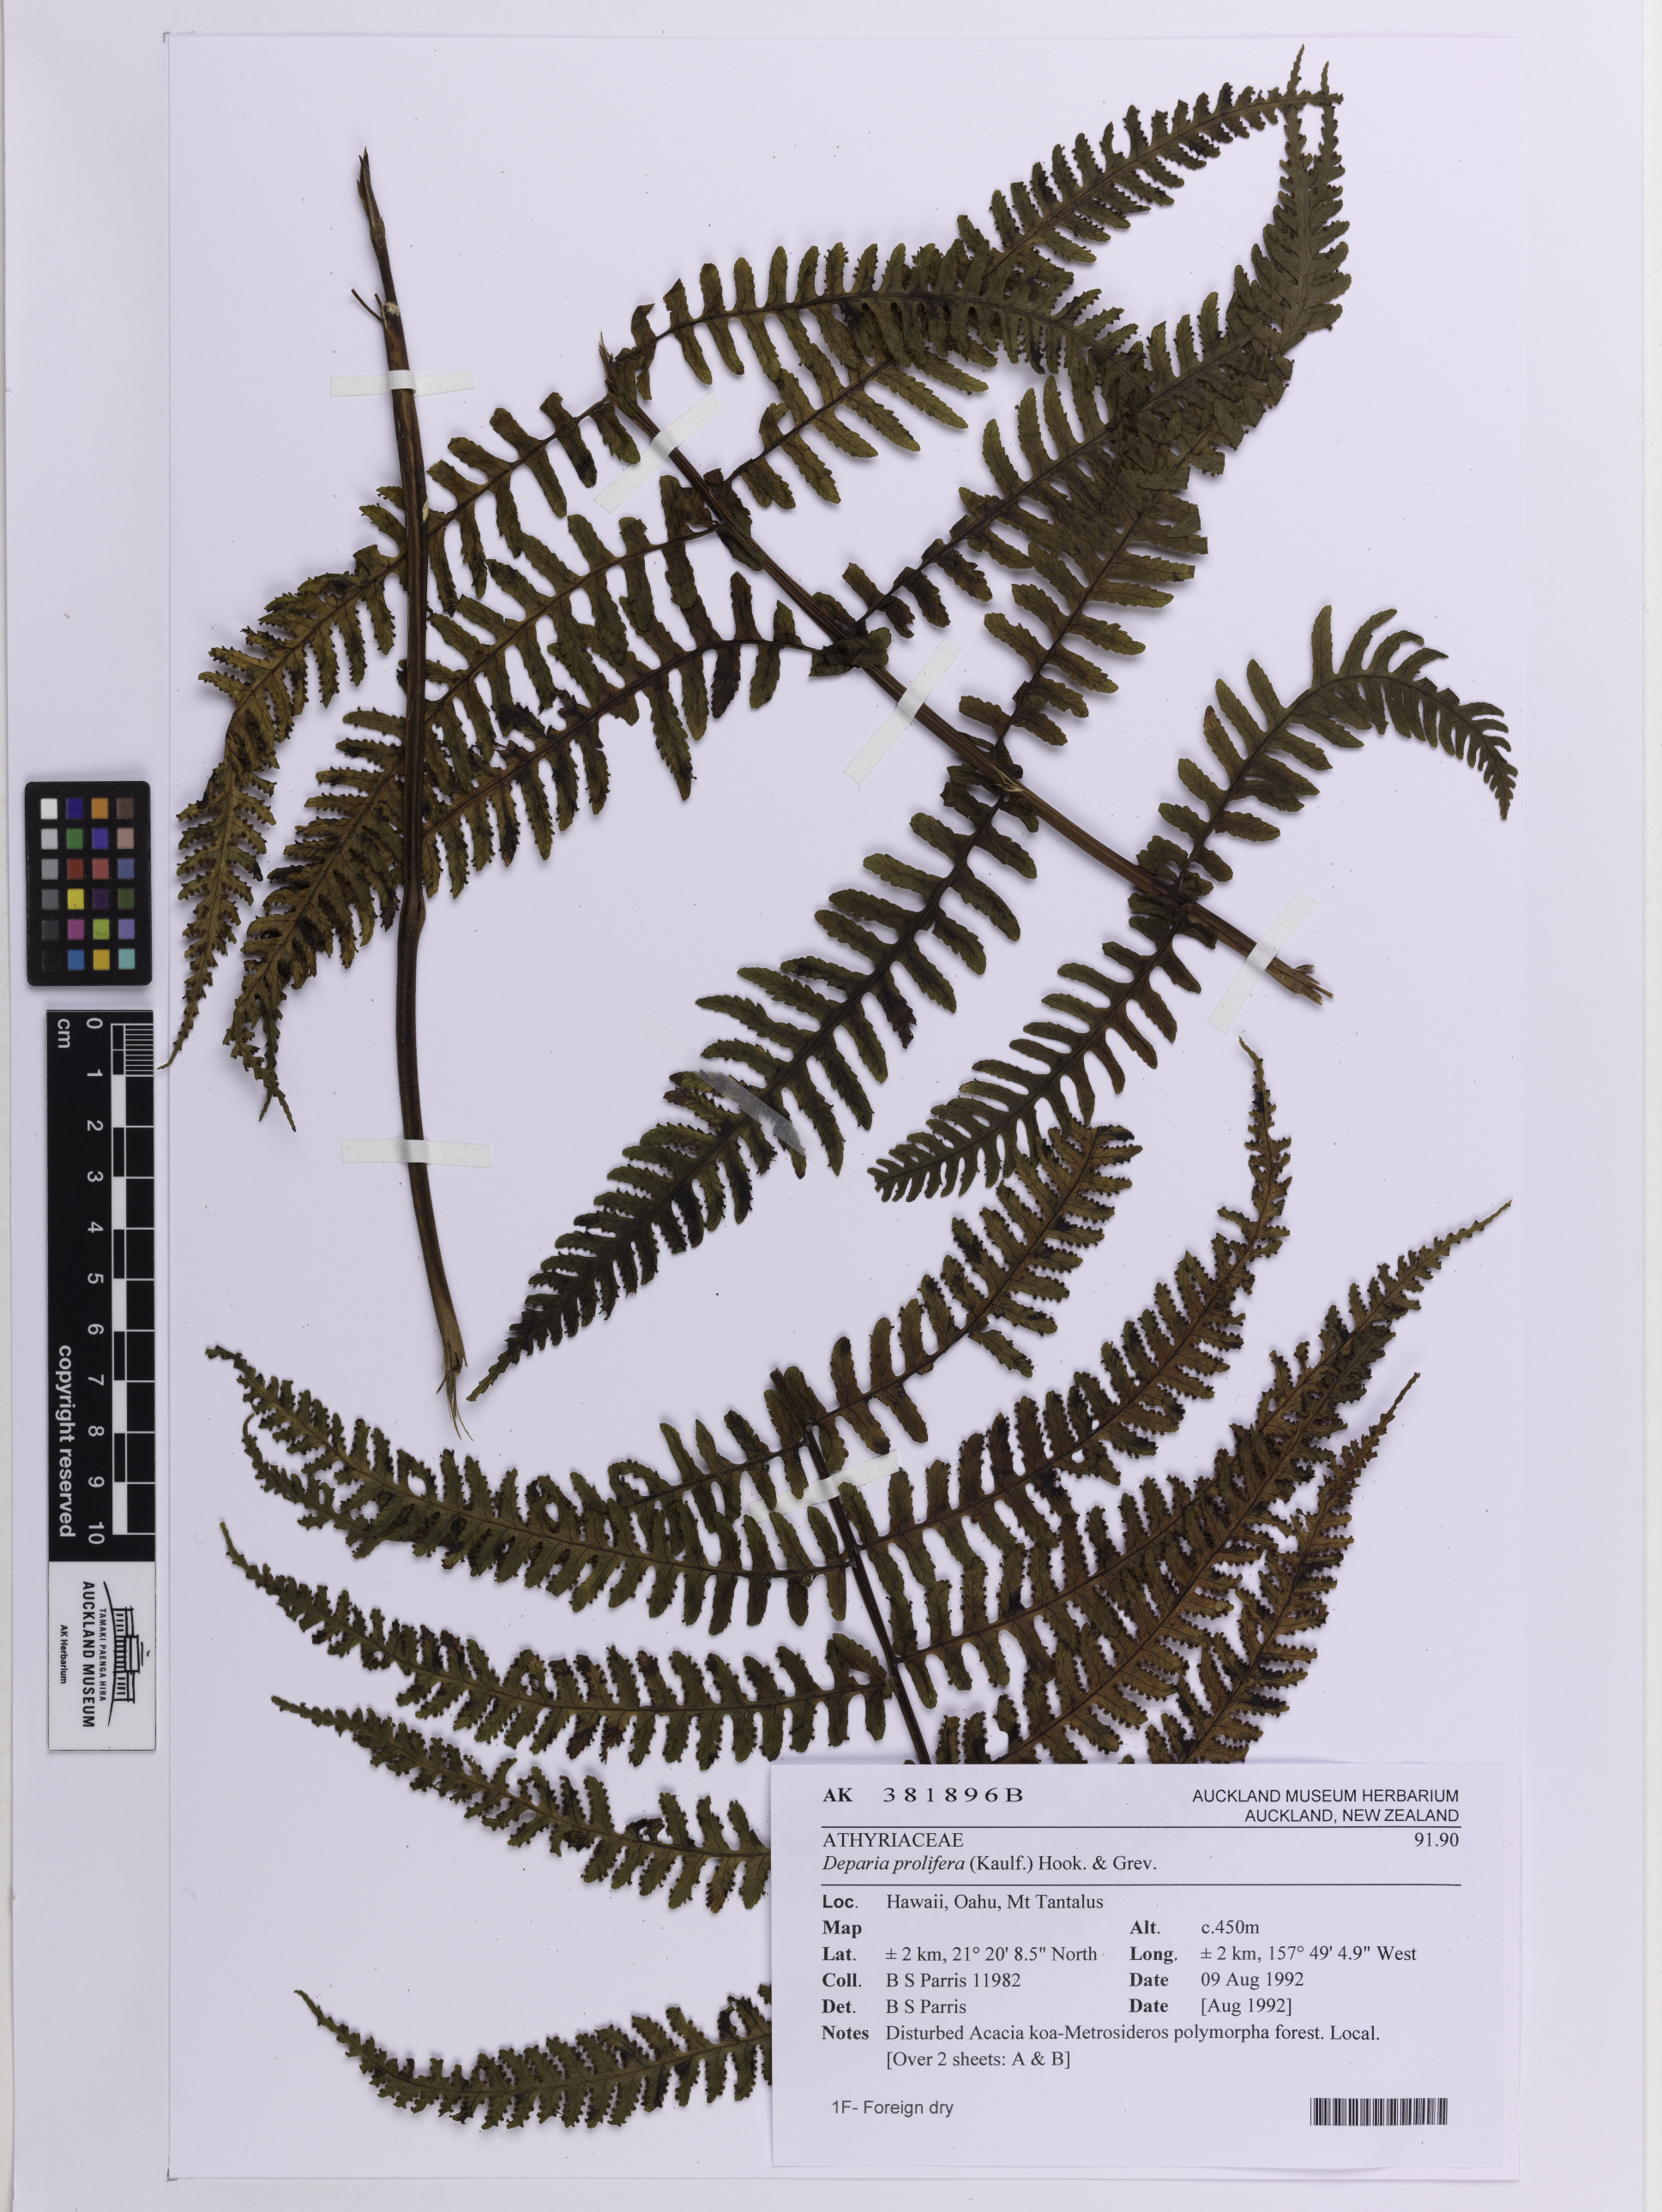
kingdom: Plantae
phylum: Tracheophyta
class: Polypodiopsida
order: Polypodiales
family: Athyriaceae
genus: Deparia
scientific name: Deparia prolifera
